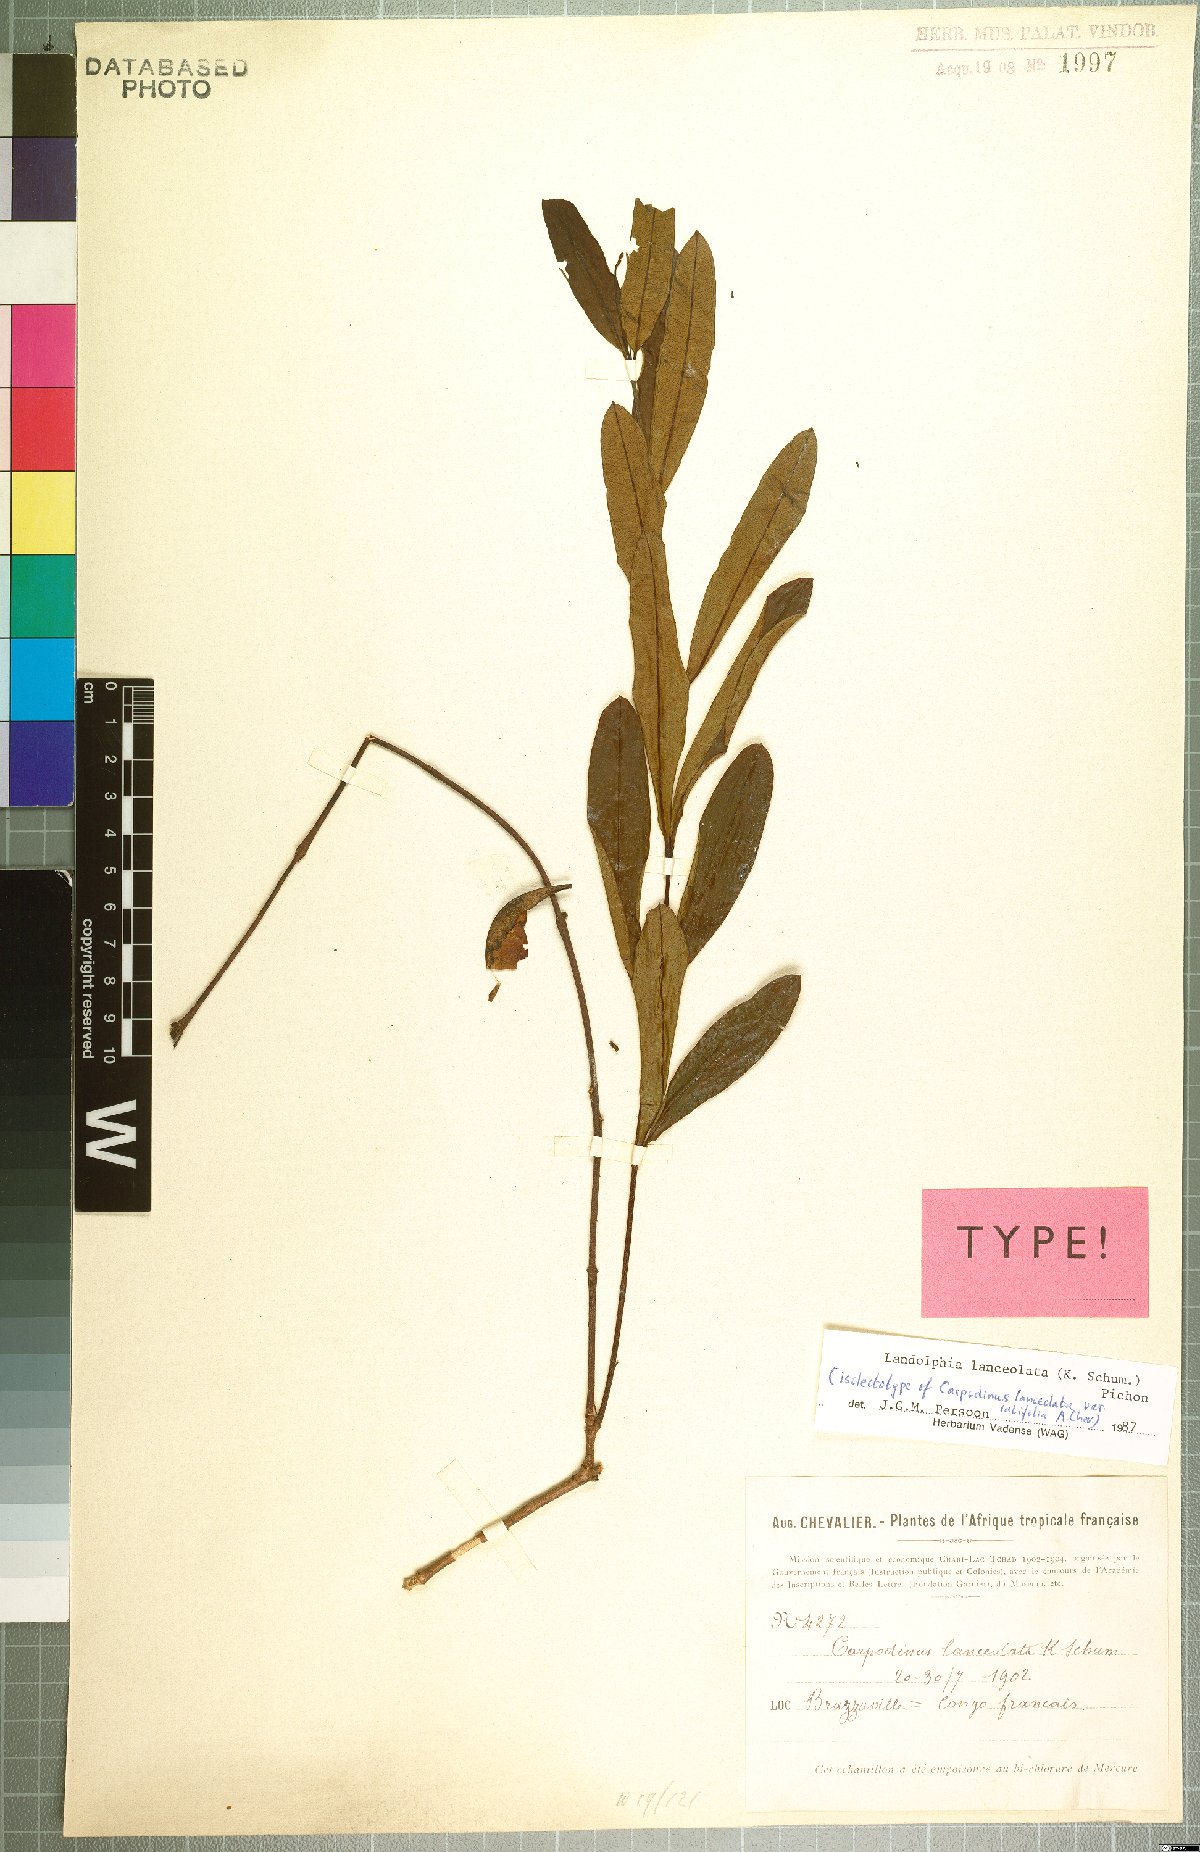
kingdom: Plantae
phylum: Tracheophyta
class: Magnoliopsida
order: Gentianales
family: Apocynaceae
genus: Landolphia
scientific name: Landolphia lanceolata
